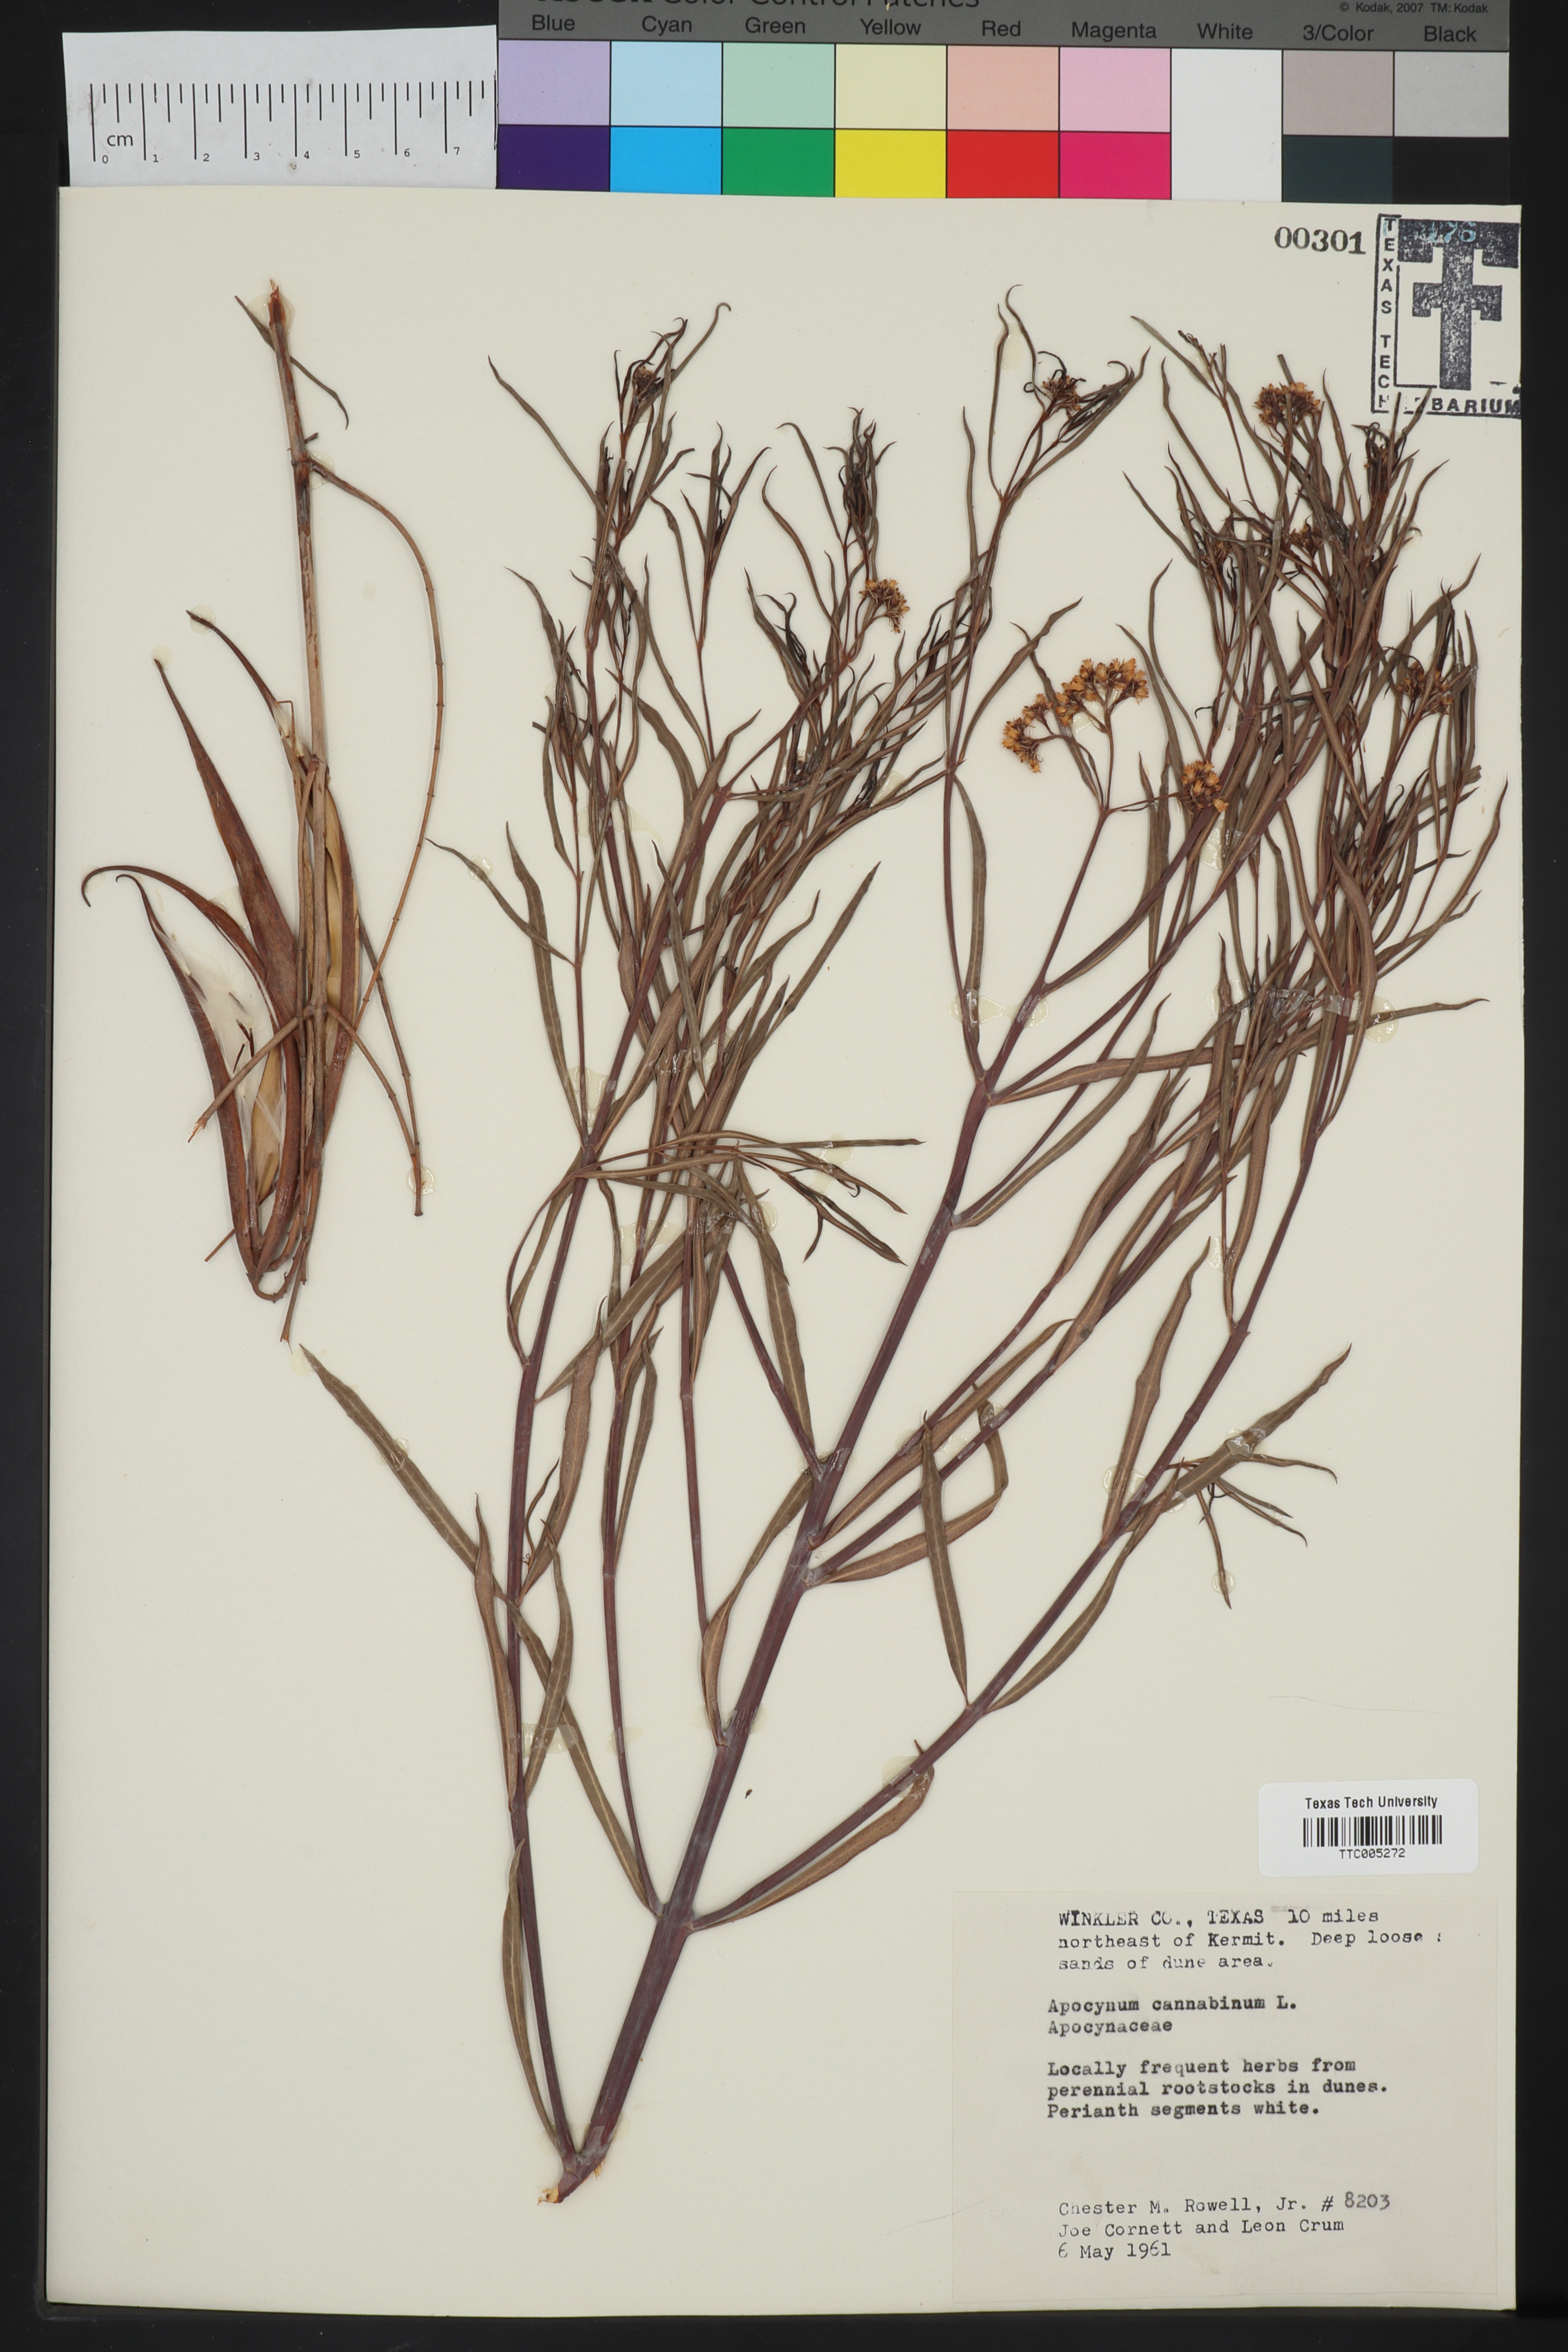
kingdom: Plantae
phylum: Tracheophyta
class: Magnoliopsida
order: Gentianales
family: Apocynaceae
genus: Apocynum
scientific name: Apocynum cannabinum
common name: Hemp dogbane
